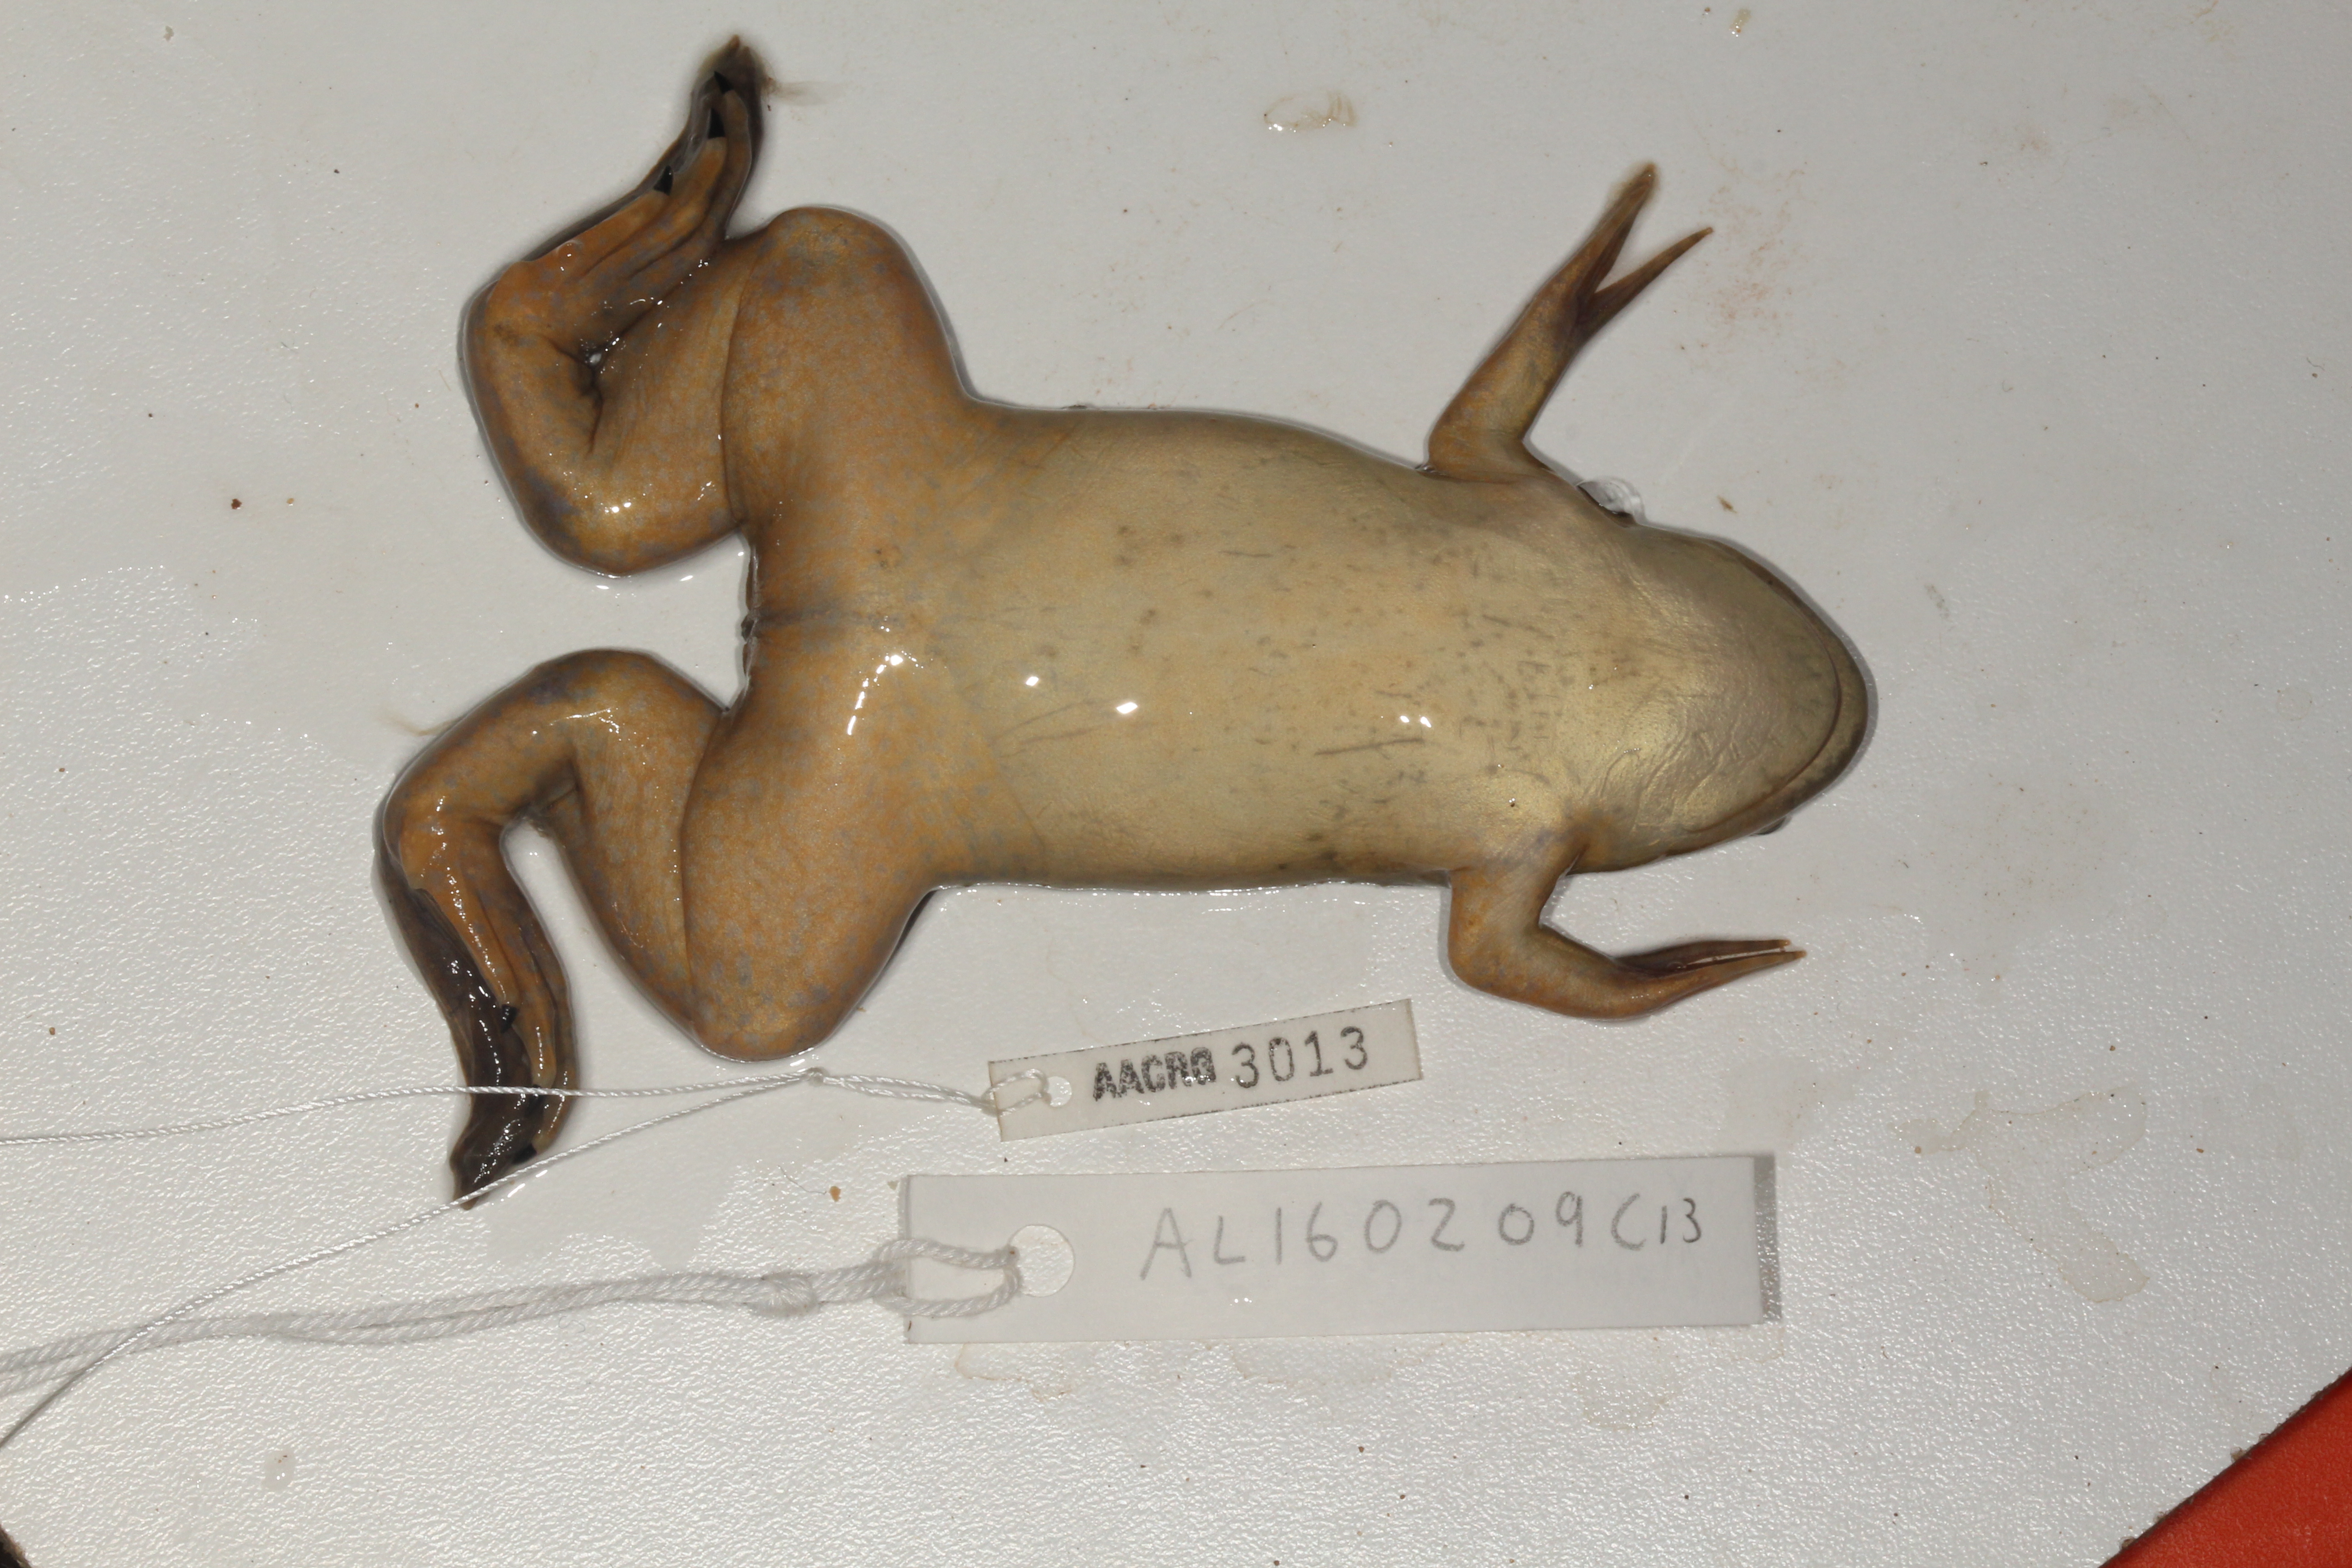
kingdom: Animalia
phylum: Chordata
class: Amphibia
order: Anura
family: Pipidae
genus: Xenopus
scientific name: Xenopus laevis
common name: African clawed frog
